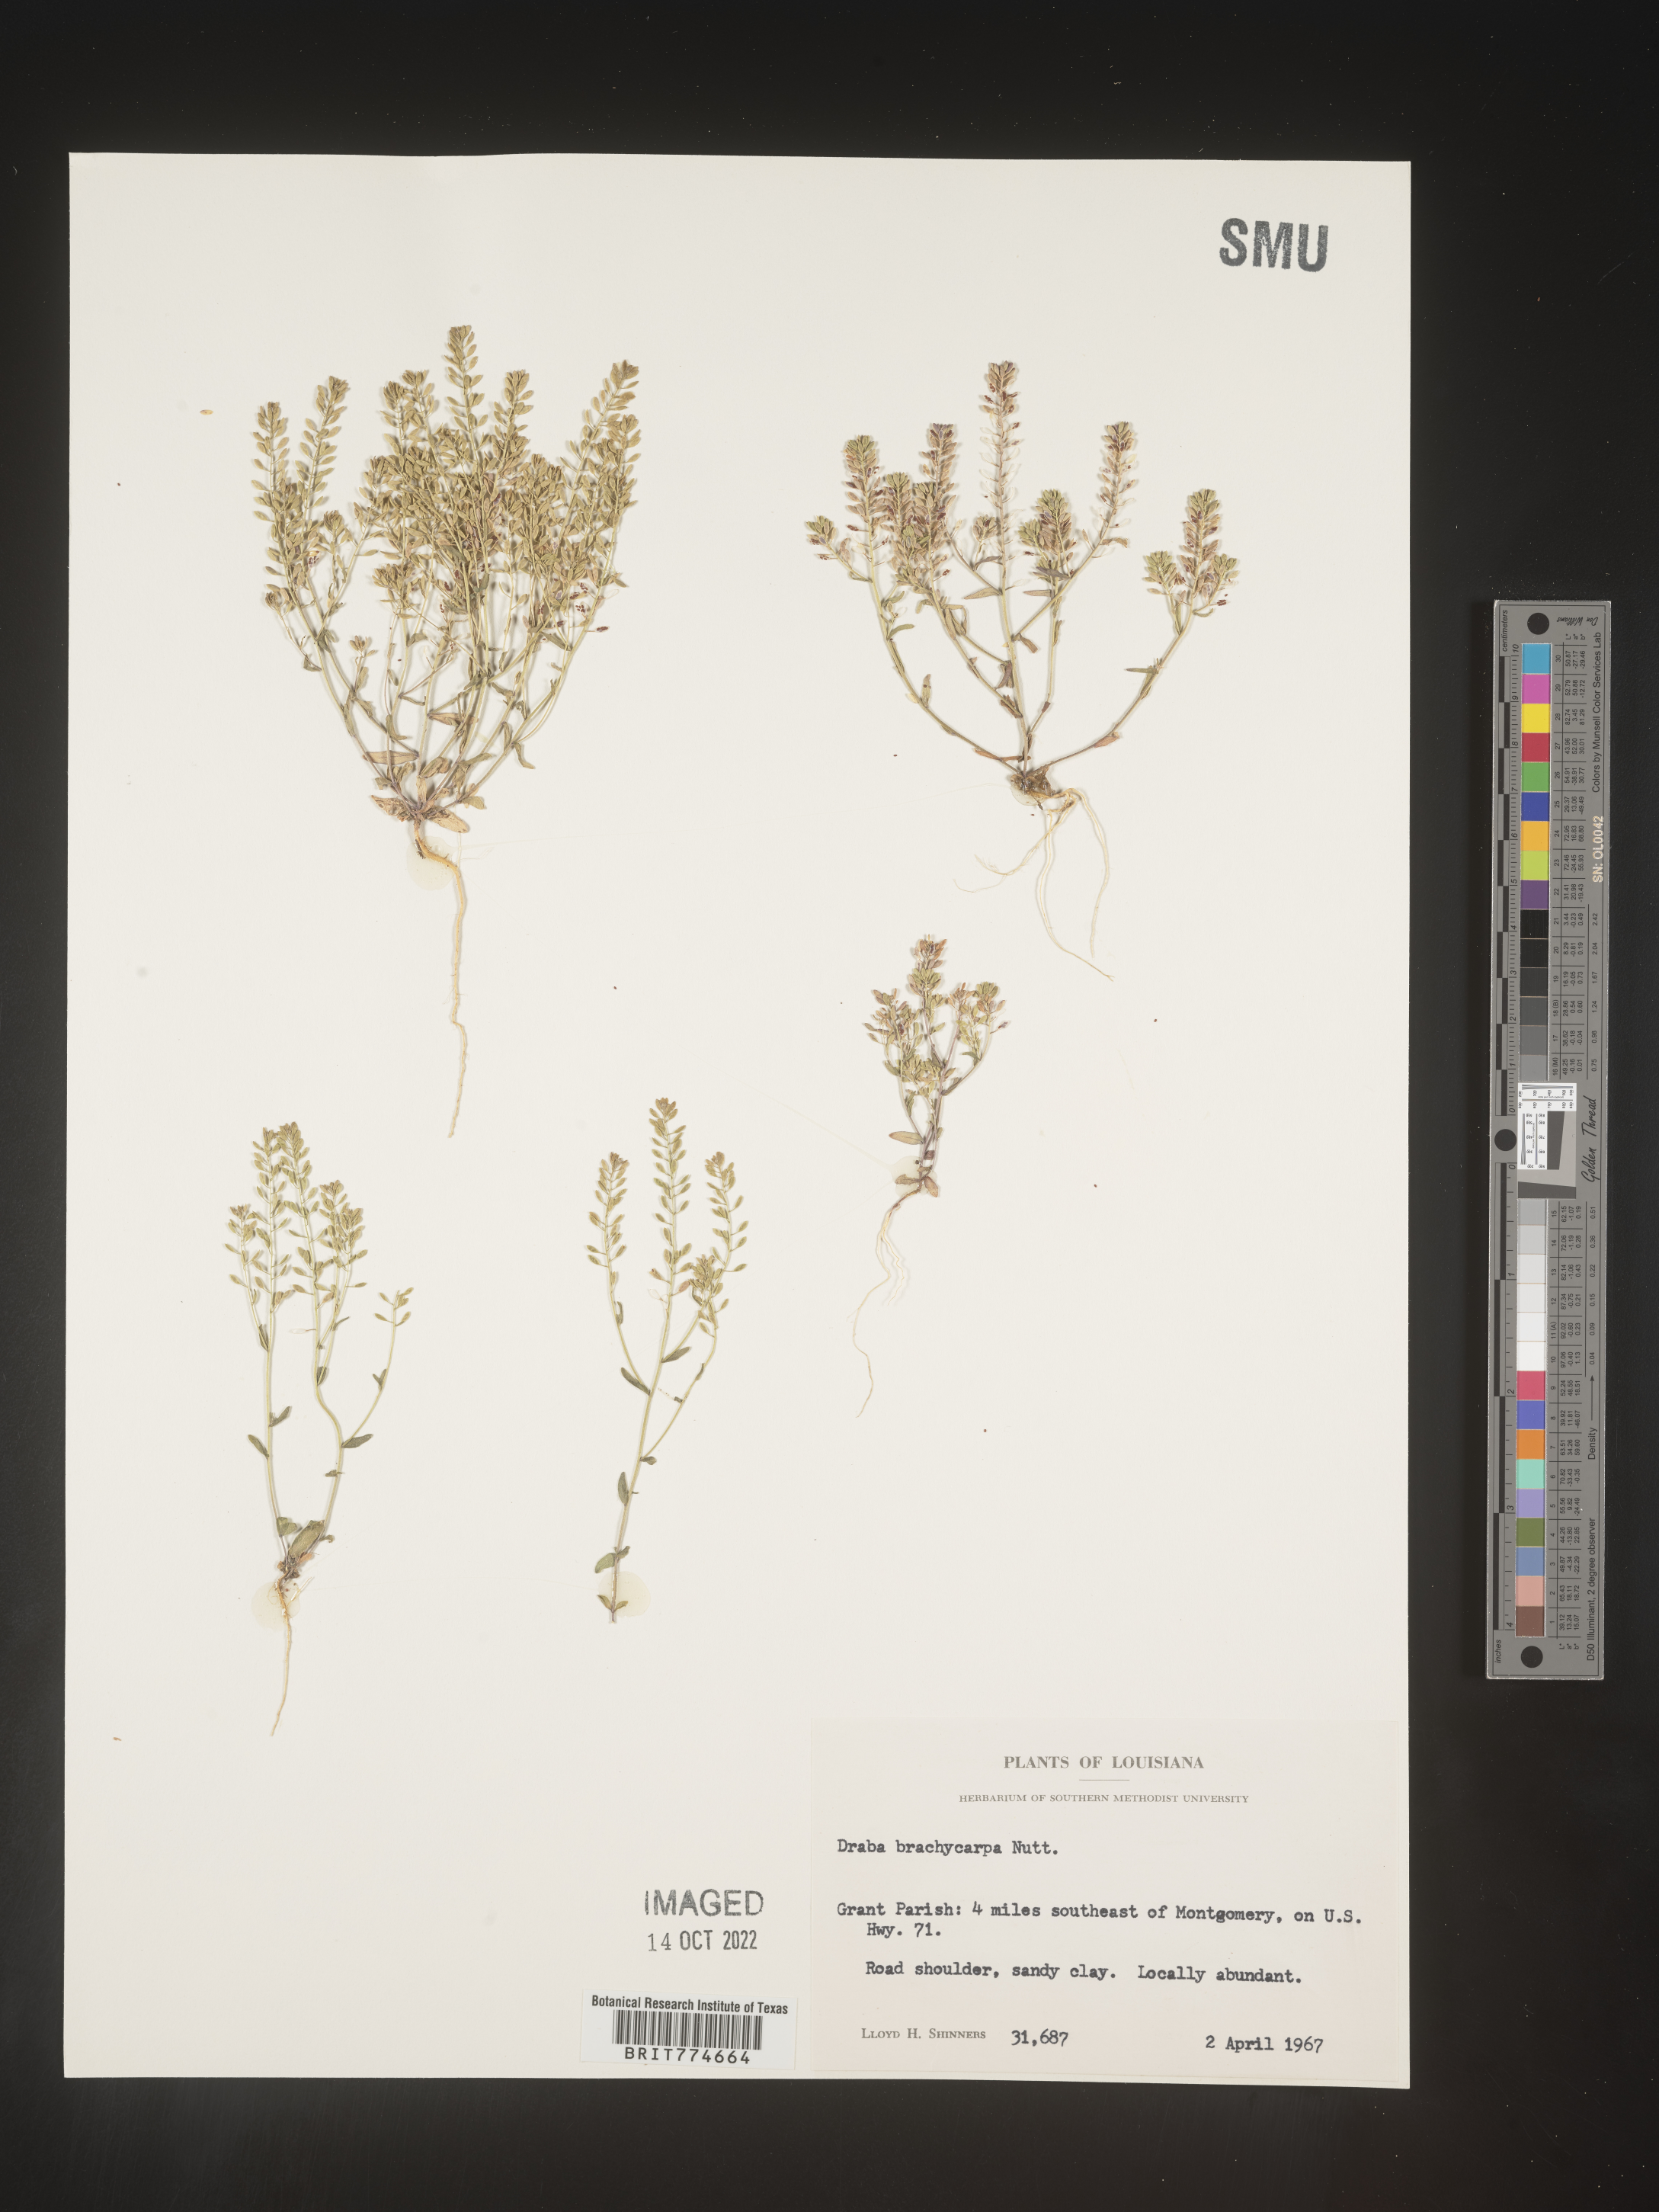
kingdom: Plantae
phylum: Tracheophyta
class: Magnoliopsida
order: Brassicales
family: Brassicaceae
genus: Abdra
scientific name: Abdra brachycarpa
